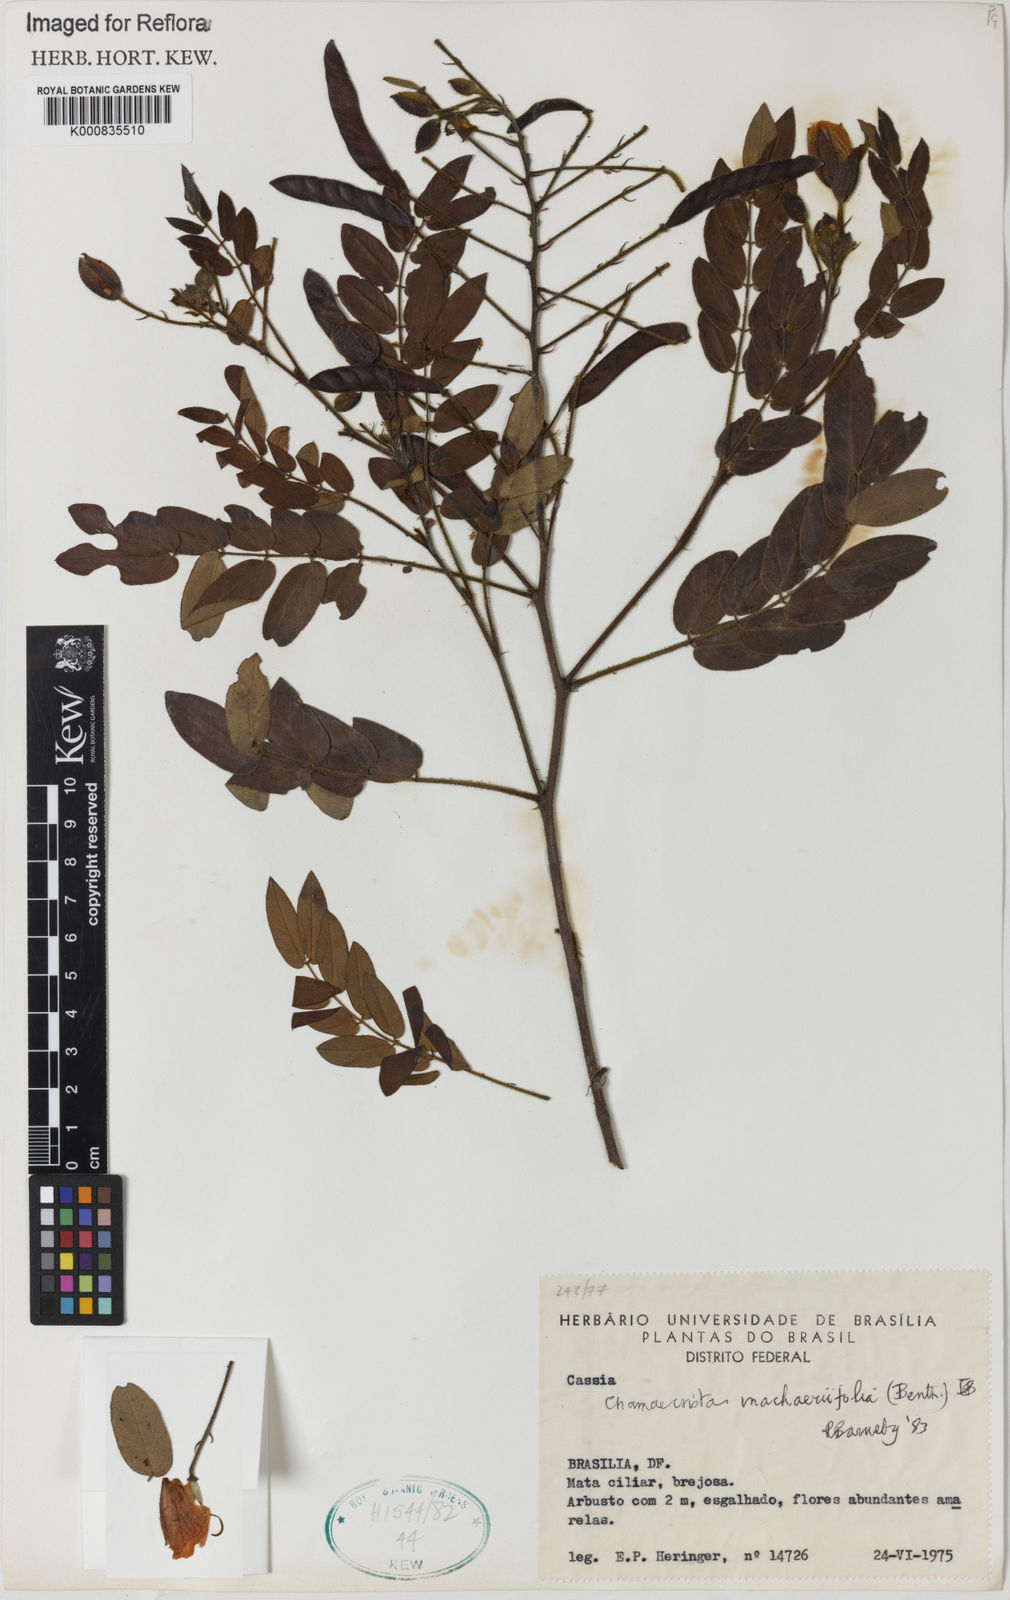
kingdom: Plantae
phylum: Tracheophyta
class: Magnoliopsida
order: Fabales
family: Fabaceae
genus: Chamaecrista
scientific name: Chamaecrista machaeriifolia
